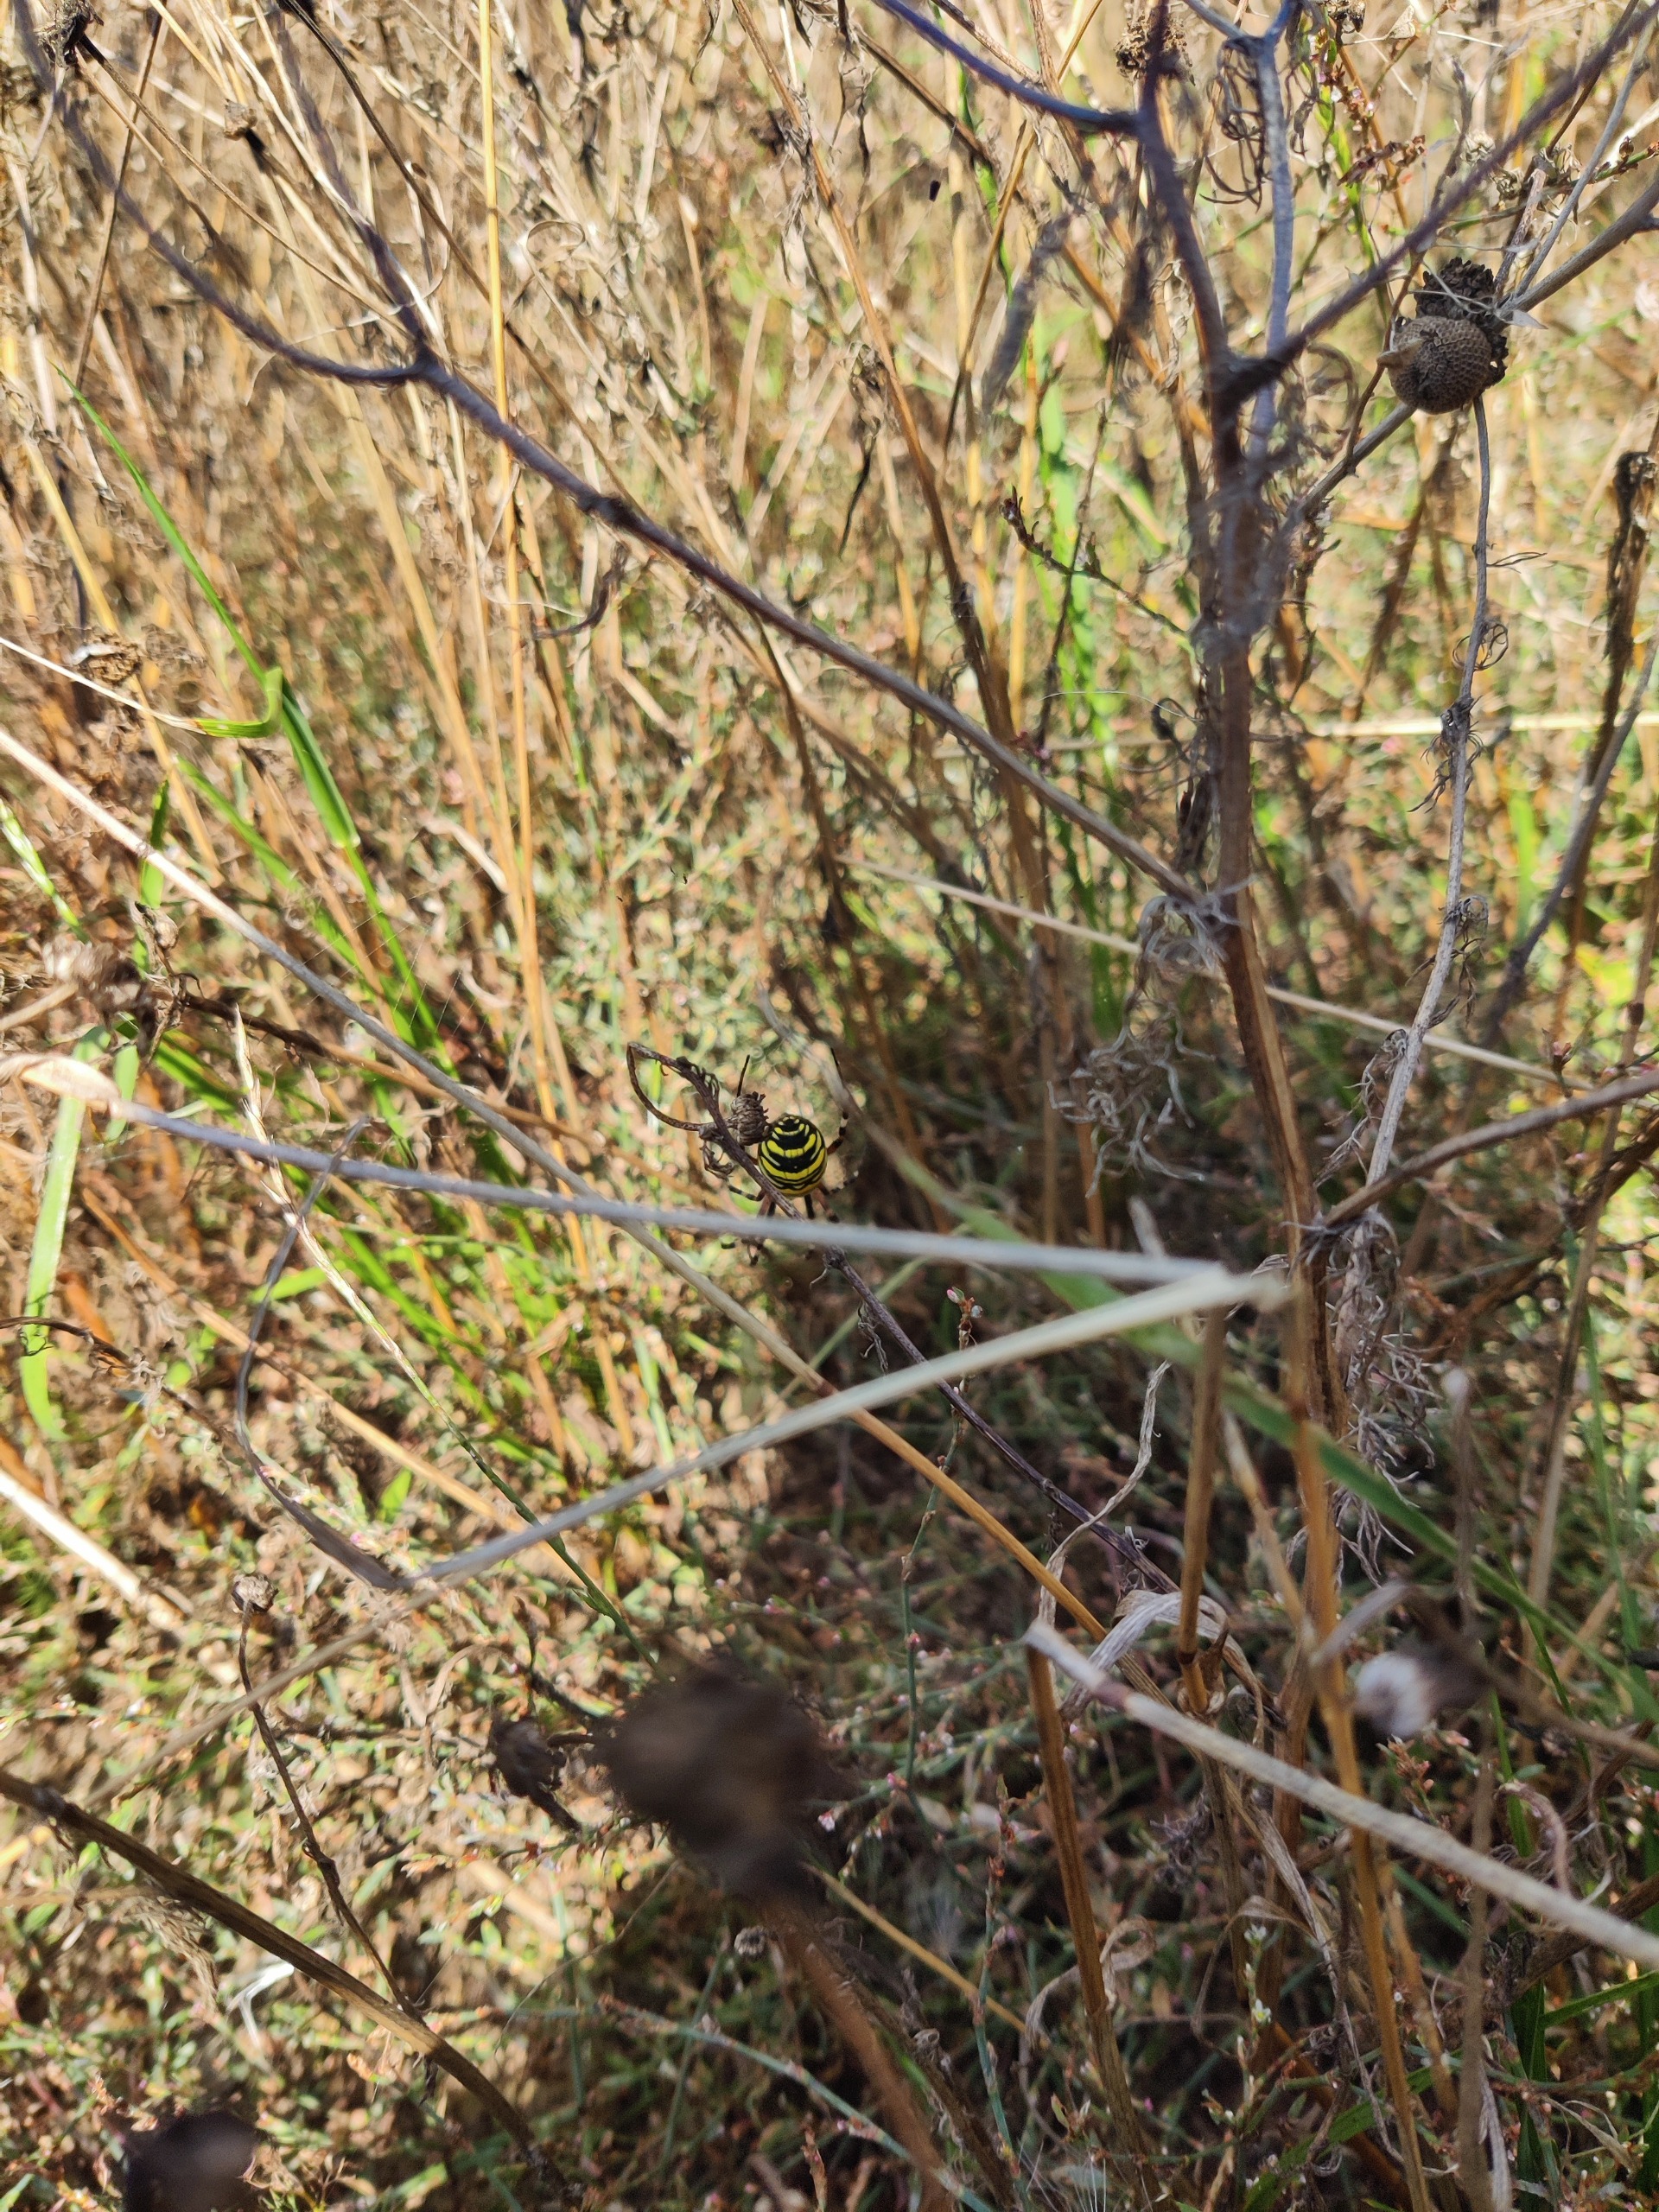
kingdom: Animalia
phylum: Arthropoda
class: Arachnida
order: Araneae
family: Araneidae
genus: Argiope
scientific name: Argiope bruennichi
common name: Hvepseedderkop
